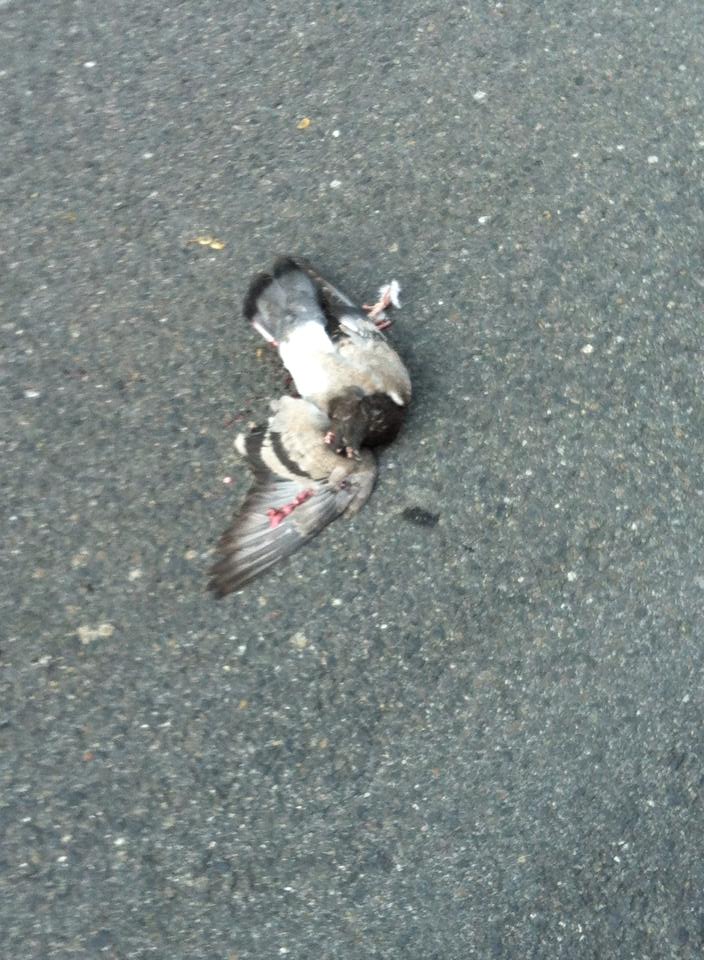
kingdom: Animalia
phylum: Chordata
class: Aves
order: Columbiformes
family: Columbidae
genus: Columba
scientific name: Columba livia
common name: Rock pigeon
